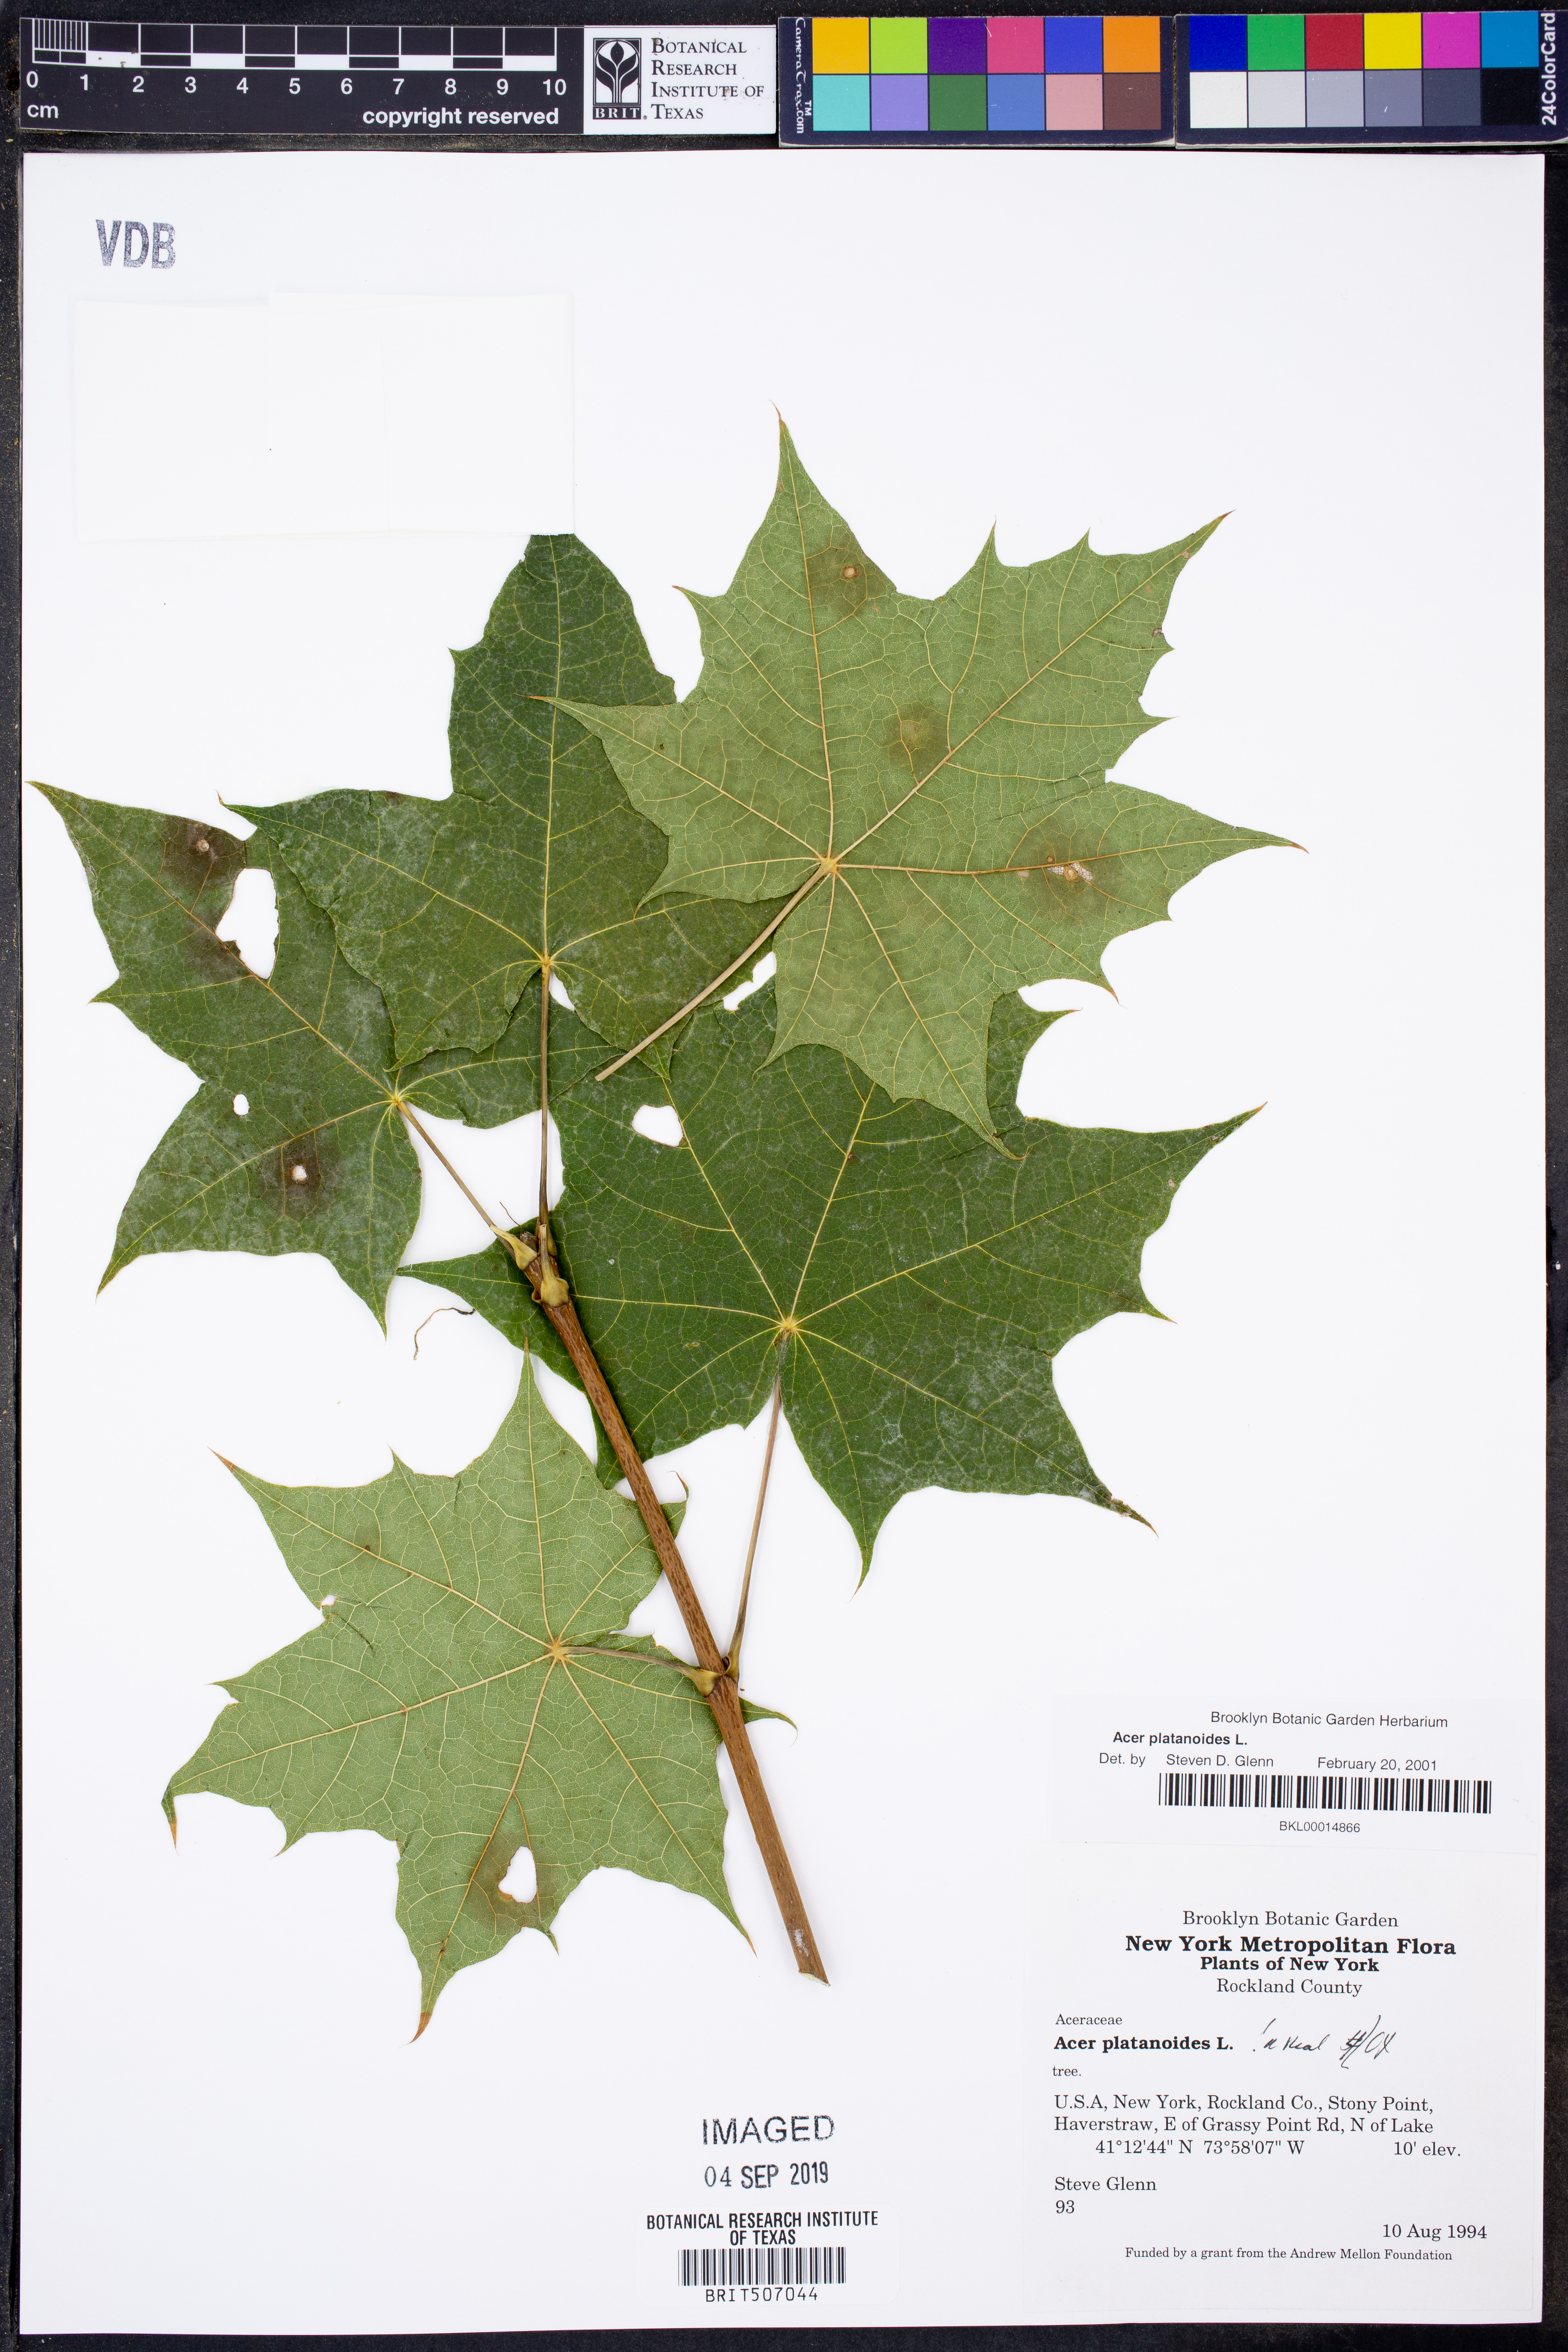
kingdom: Plantae
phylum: Tracheophyta
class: Magnoliopsida
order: Sapindales
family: Sapindaceae
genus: Acer
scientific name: Acer platanoides
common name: Norway maple
